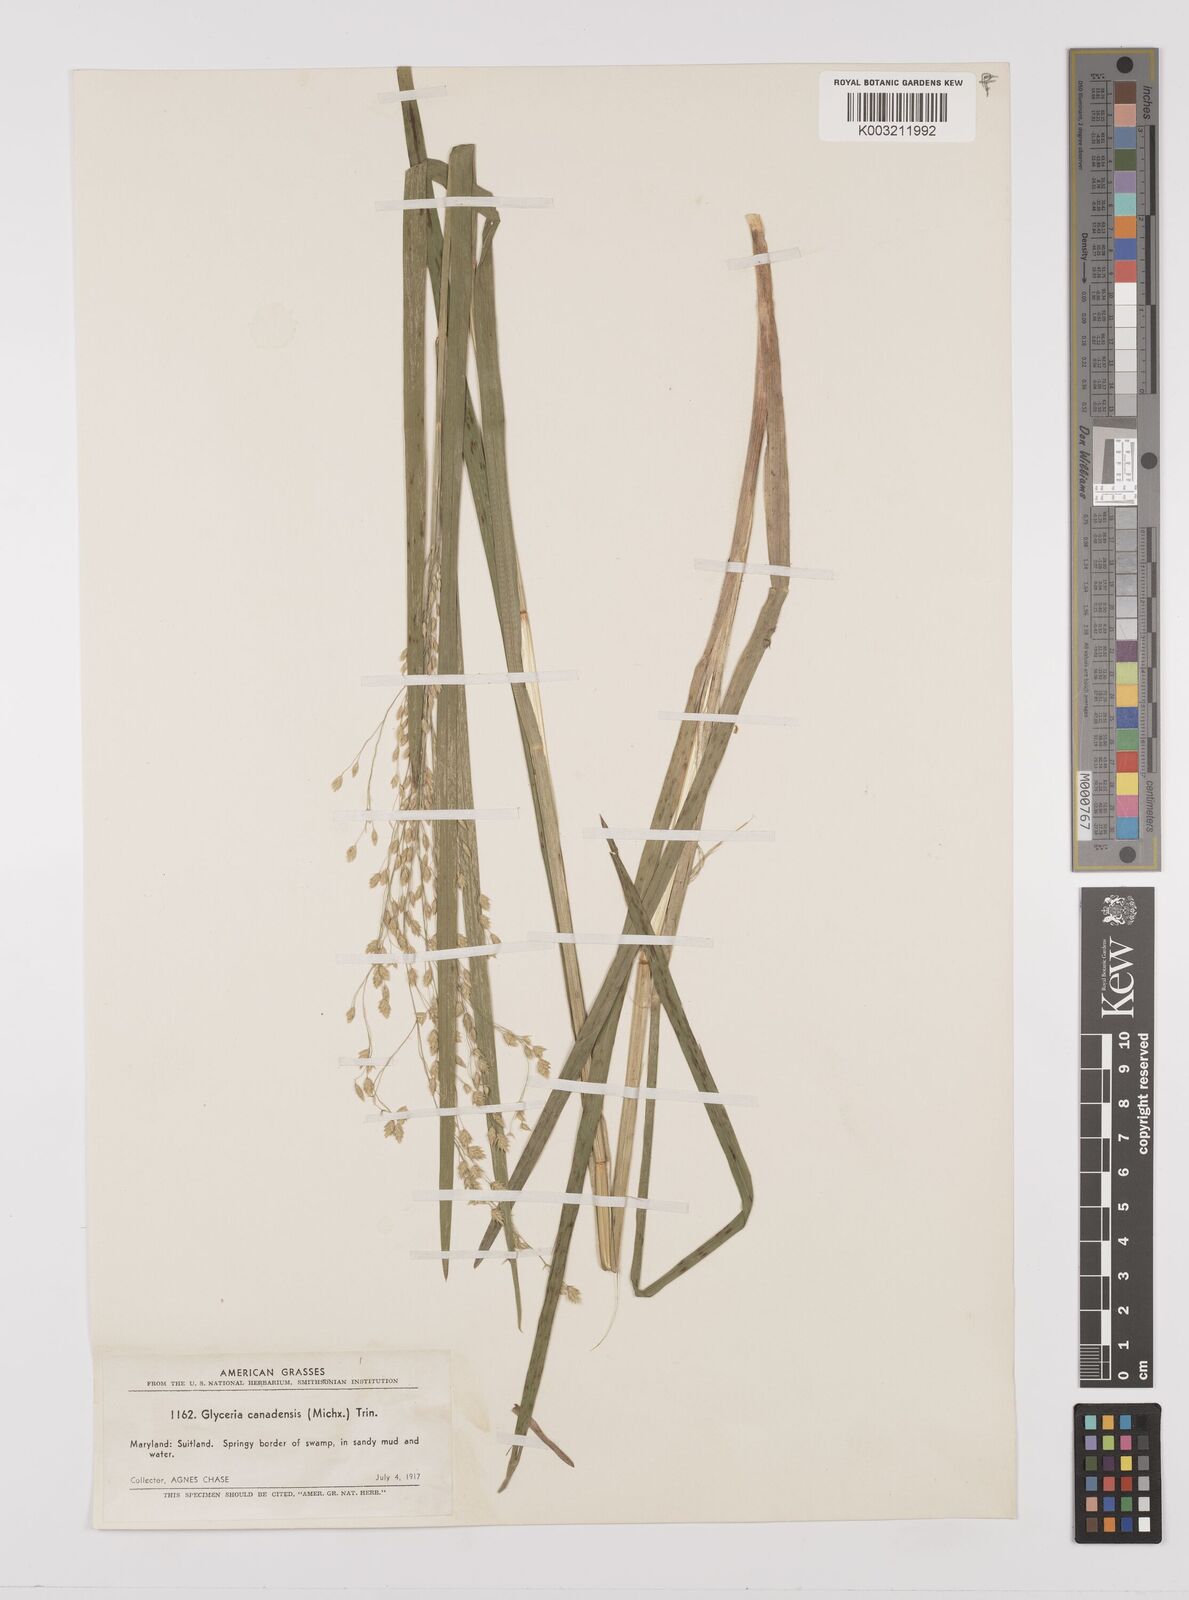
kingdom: Plantae
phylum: Tracheophyta
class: Liliopsida
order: Poales
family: Poaceae
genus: Glyceria
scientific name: Glyceria canadensis
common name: Canada mannagrass
